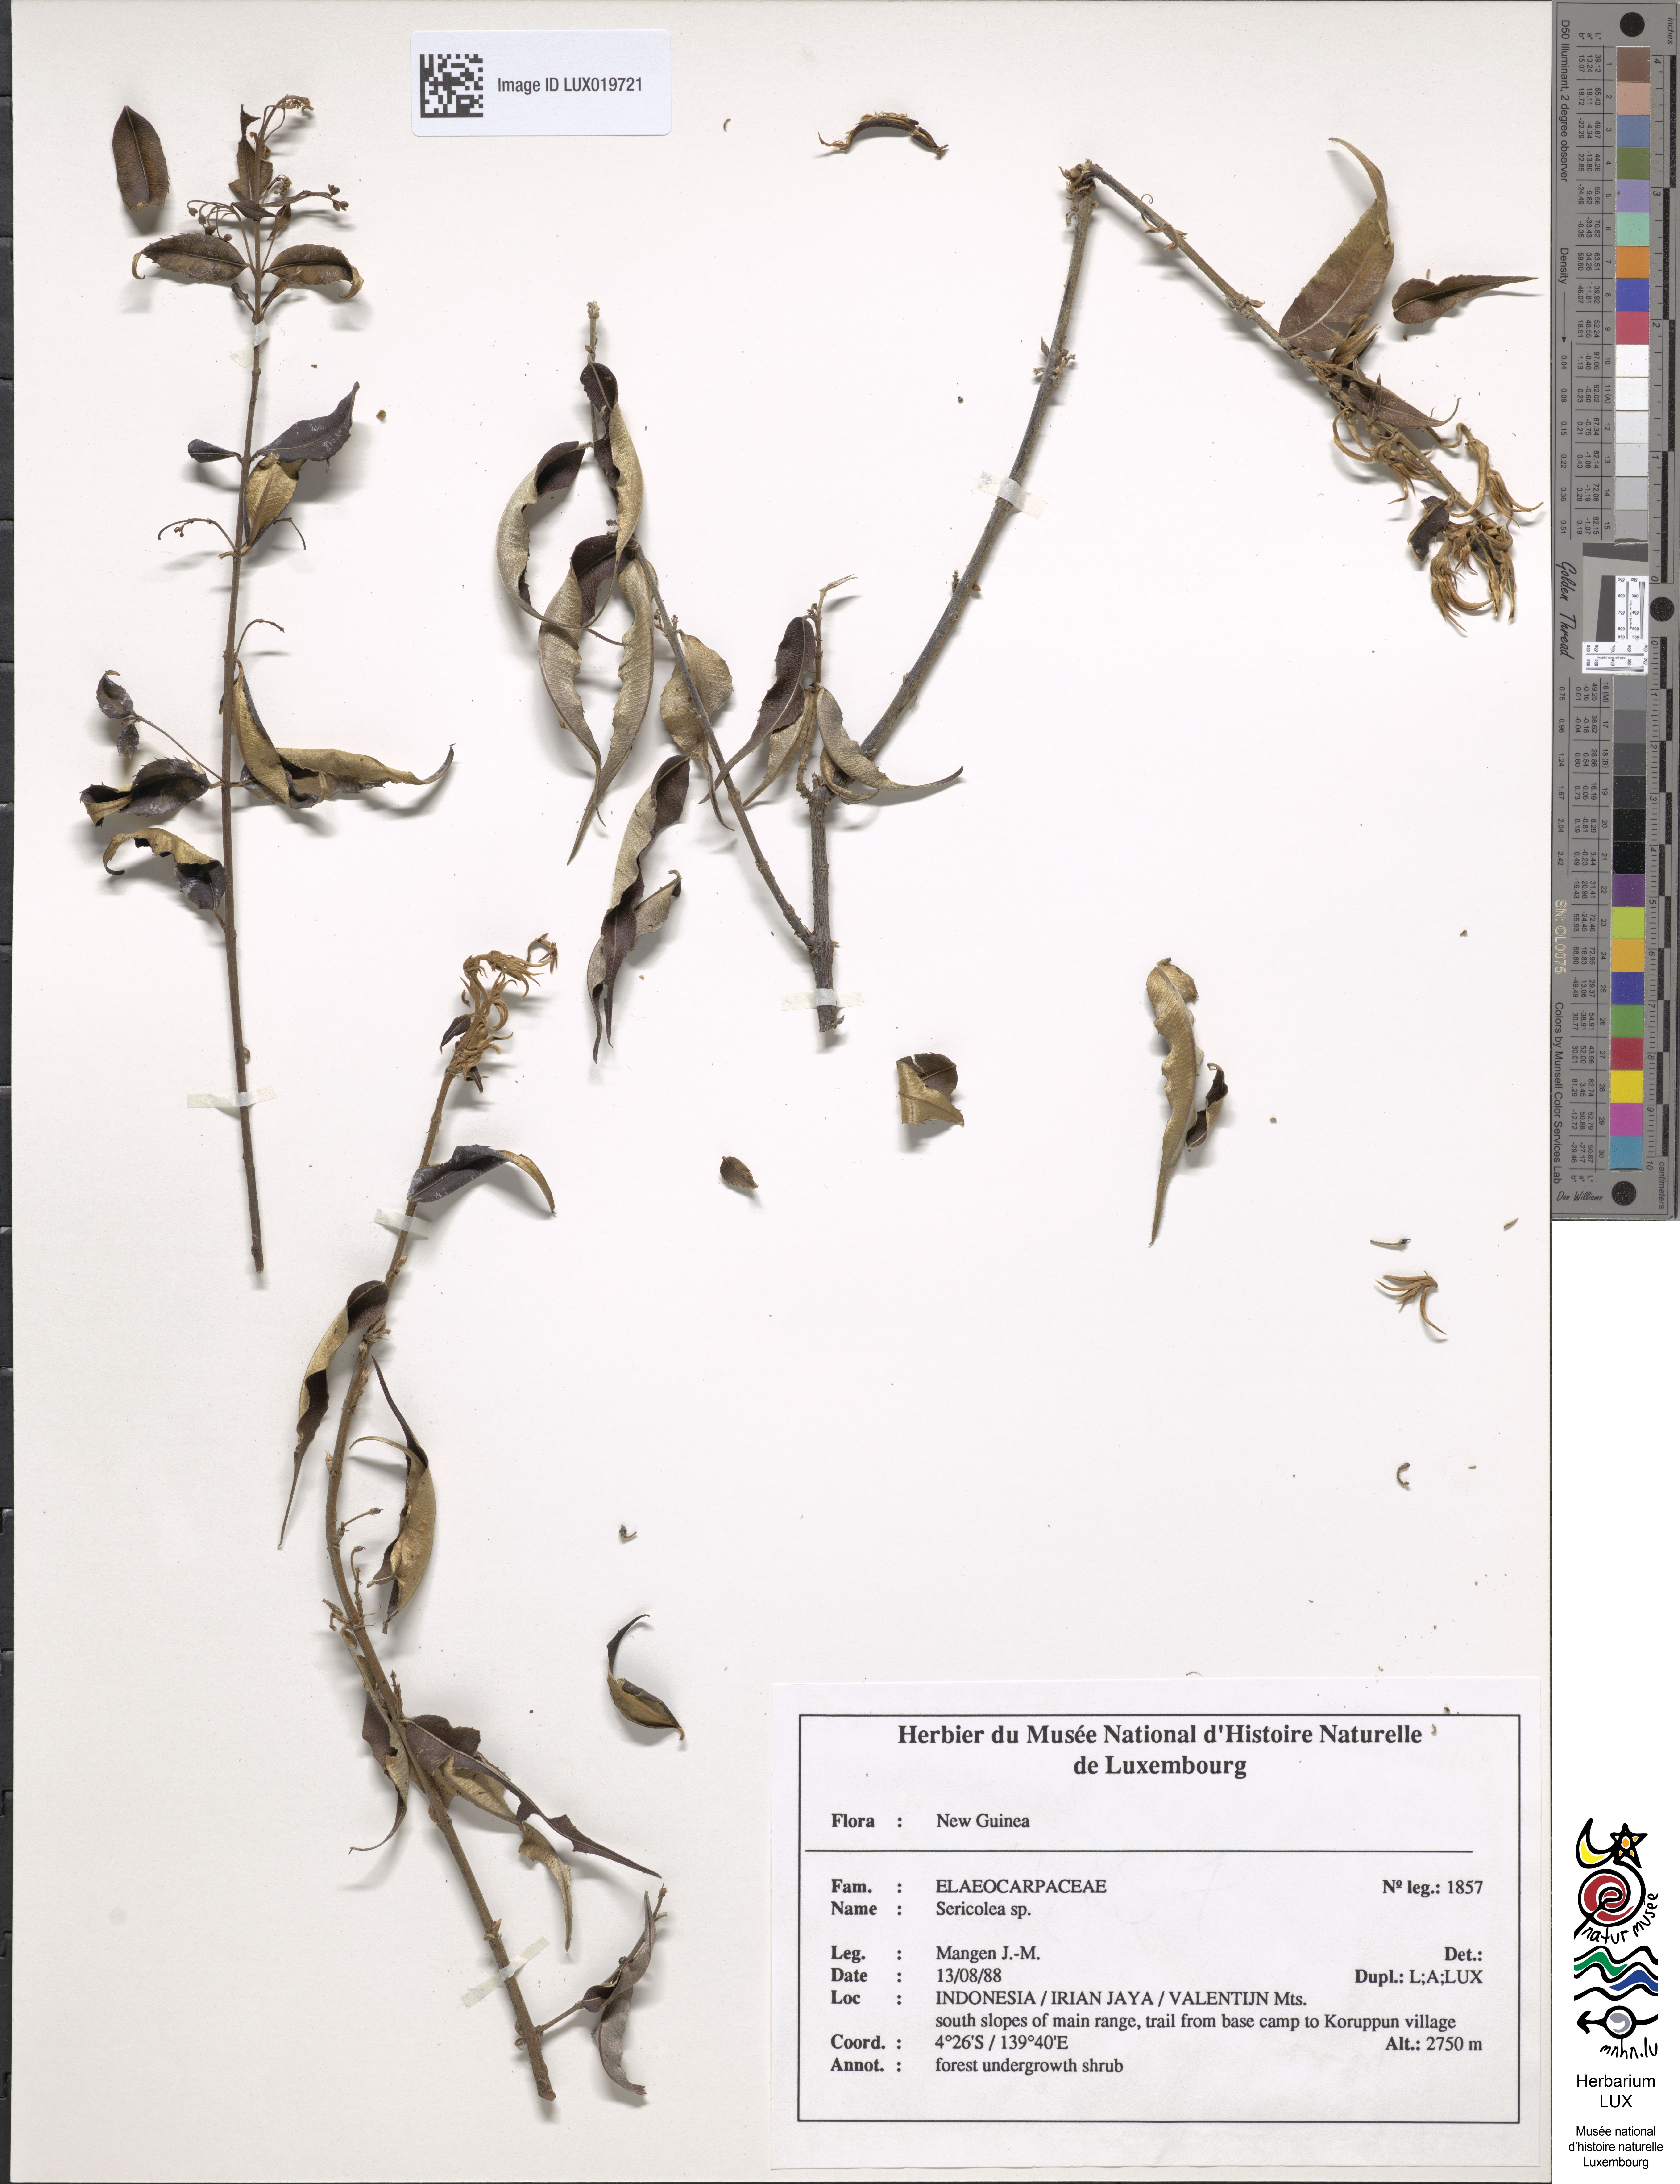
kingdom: Plantae
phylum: Tracheophyta
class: Magnoliopsida
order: Oxalidales
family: Elaeocarpaceae
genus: Sericolea
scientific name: Sericolea
